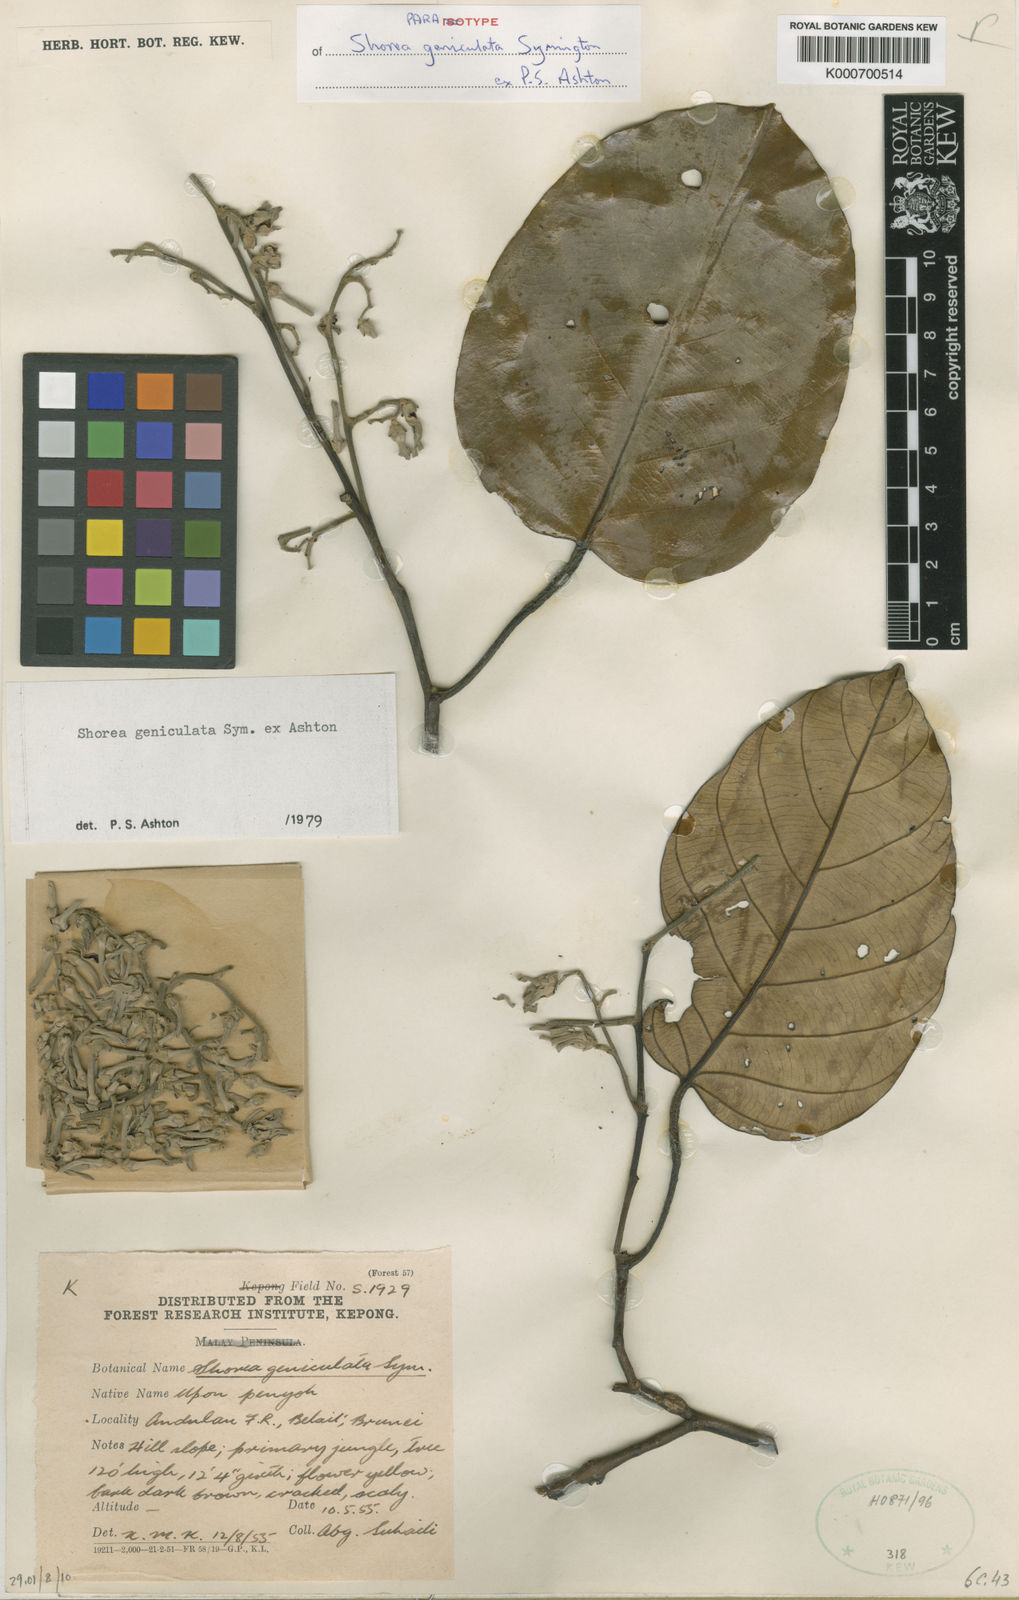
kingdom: Plantae
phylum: Tracheophyta
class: Magnoliopsida
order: Malvales
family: Dipterocarpaceae
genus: Shorea
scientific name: Shorea geniculata
